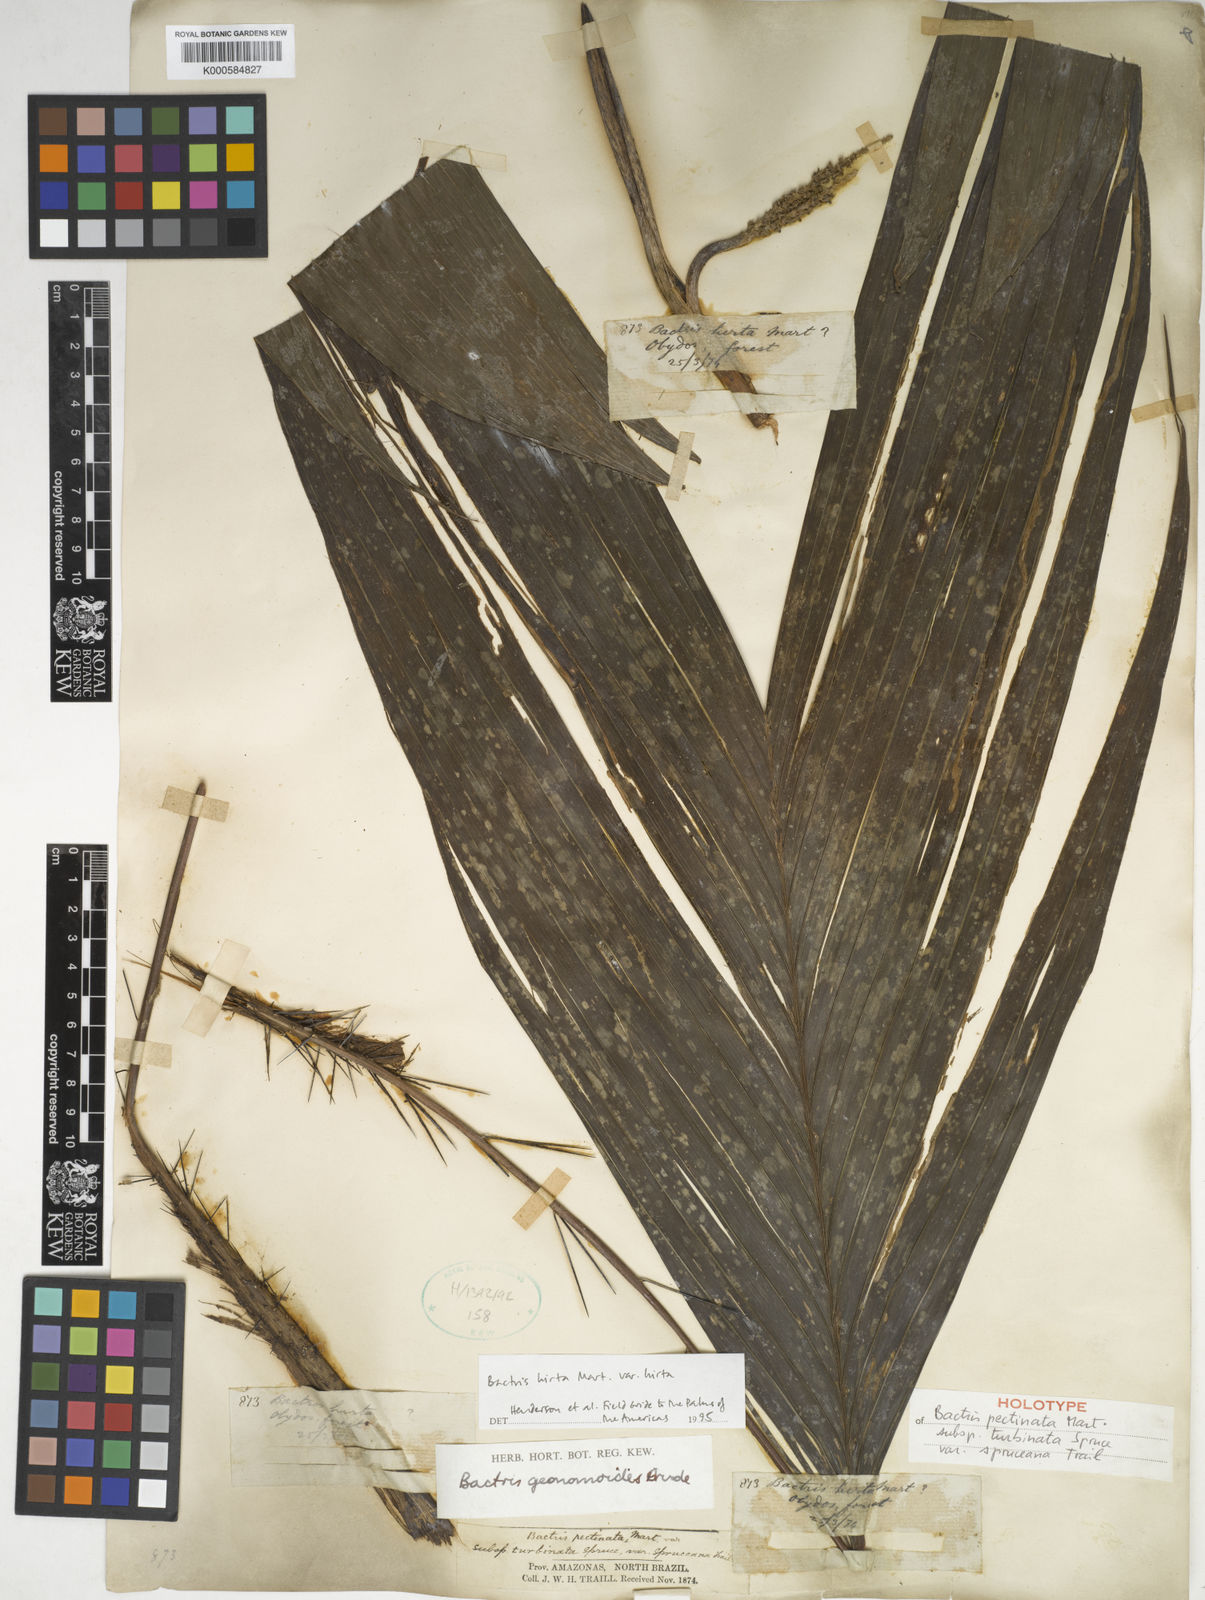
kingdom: Plantae
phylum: Tracheophyta
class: Liliopsida
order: Arecales
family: Arecaceae
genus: Bactris
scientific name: Bactris hirta
